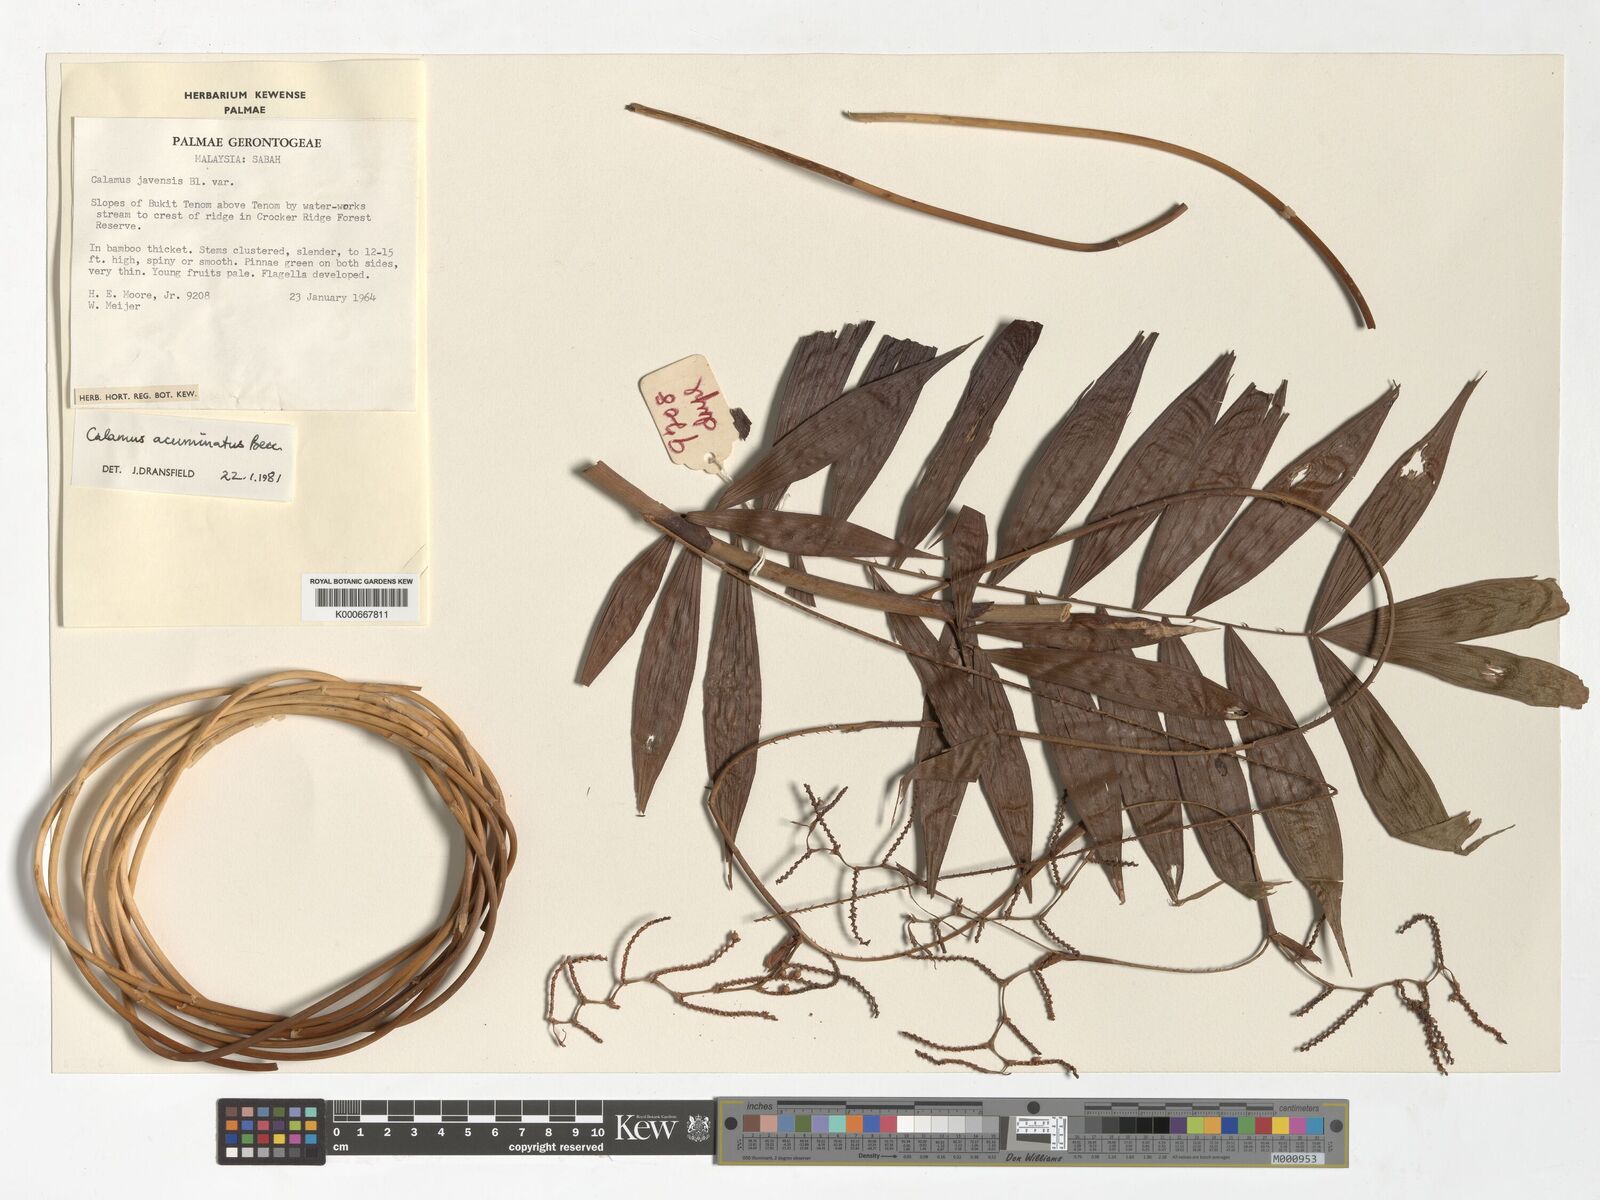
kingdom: Plantae
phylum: Tracheophyta
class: Liliopsida
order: Arecales
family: Arecaceae
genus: Calamus
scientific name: Calamus javensis
